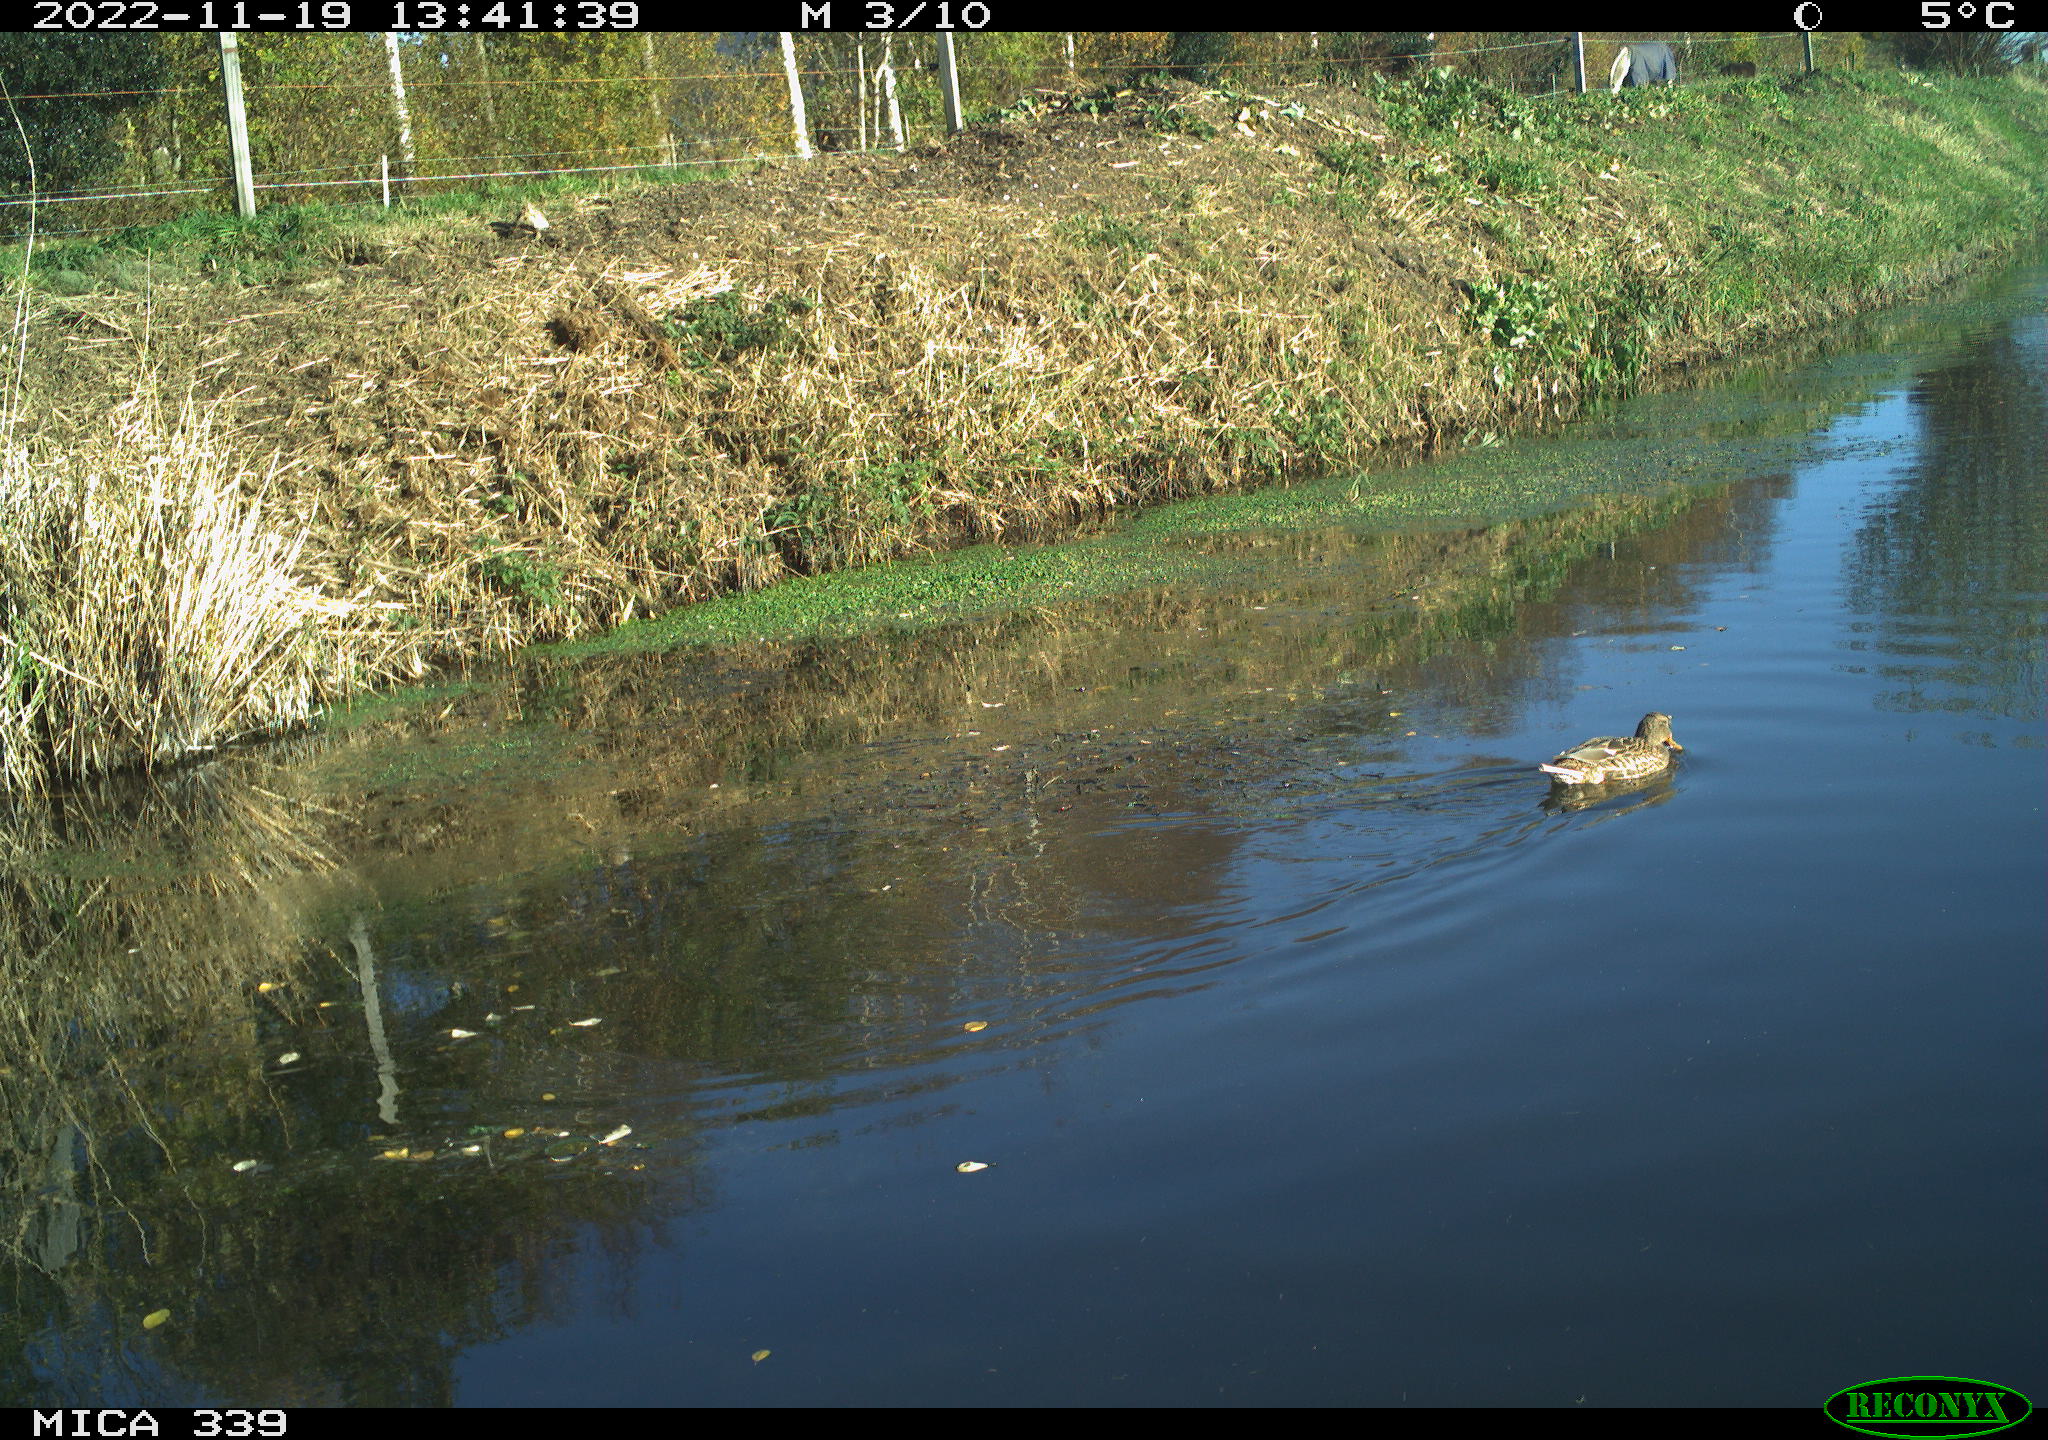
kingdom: Animalia
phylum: Chordata
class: Aves
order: Anseriformes
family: Anatidae
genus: Anas
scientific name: Anas platyrhynchos
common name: Mallard
